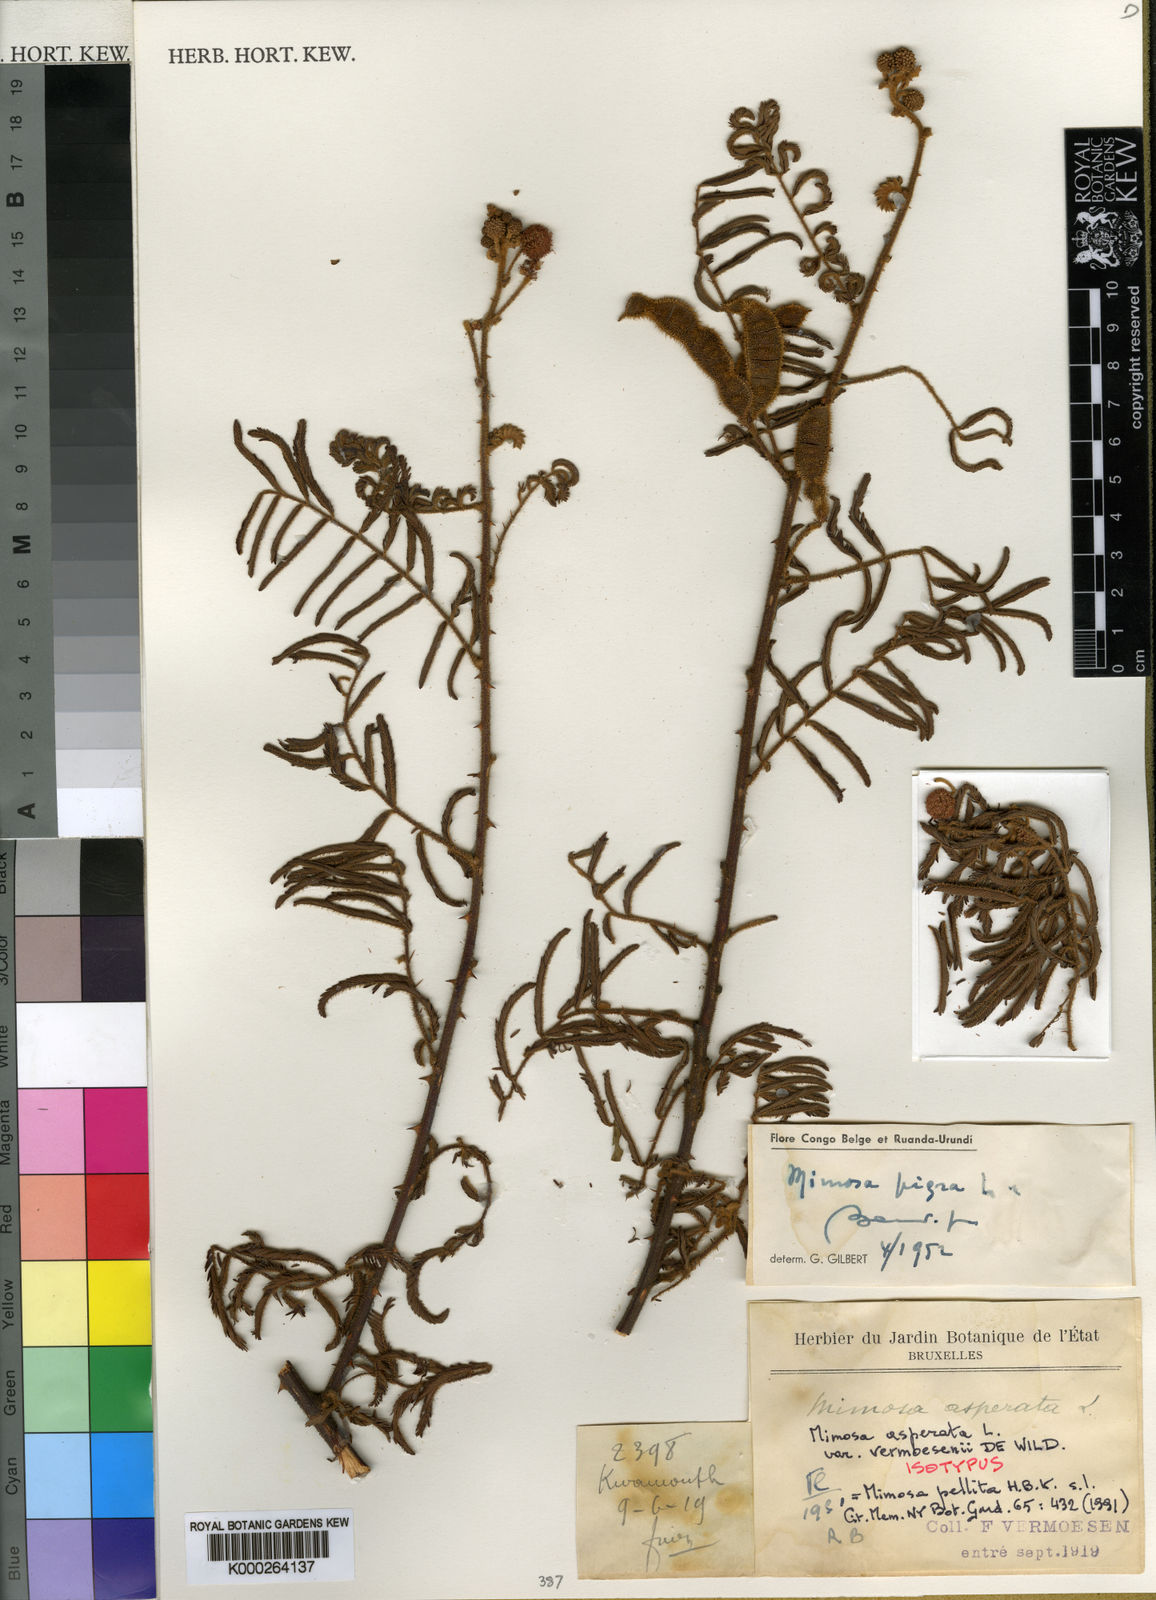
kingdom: Plantae
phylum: Tracheophyta
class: Magnoliopsida
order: Fabales
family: Fabaceae
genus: Mimosa
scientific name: Mimosa pigra
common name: Black mimosa
